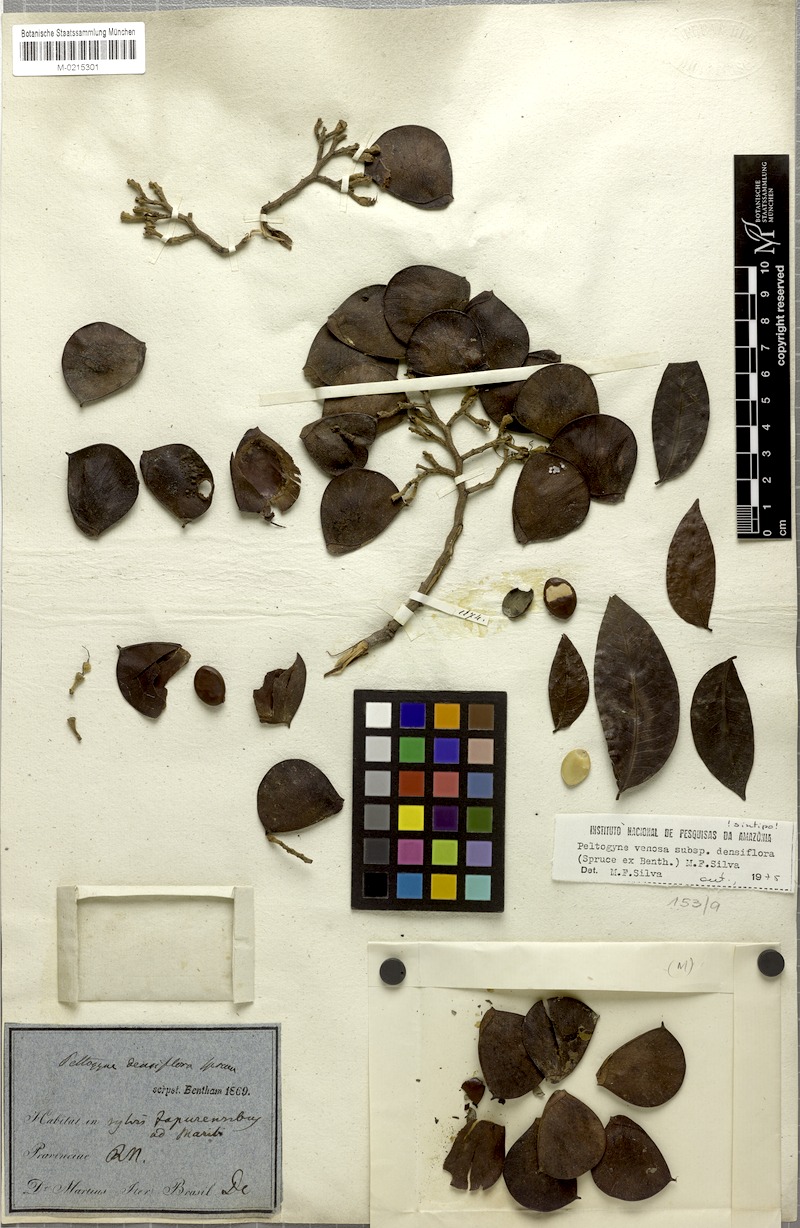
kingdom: Plantae
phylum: Tracheophyta
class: Magnoliopsida
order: Fabales
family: Fabaceae
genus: Peltogyne
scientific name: Peltogyne venosa
